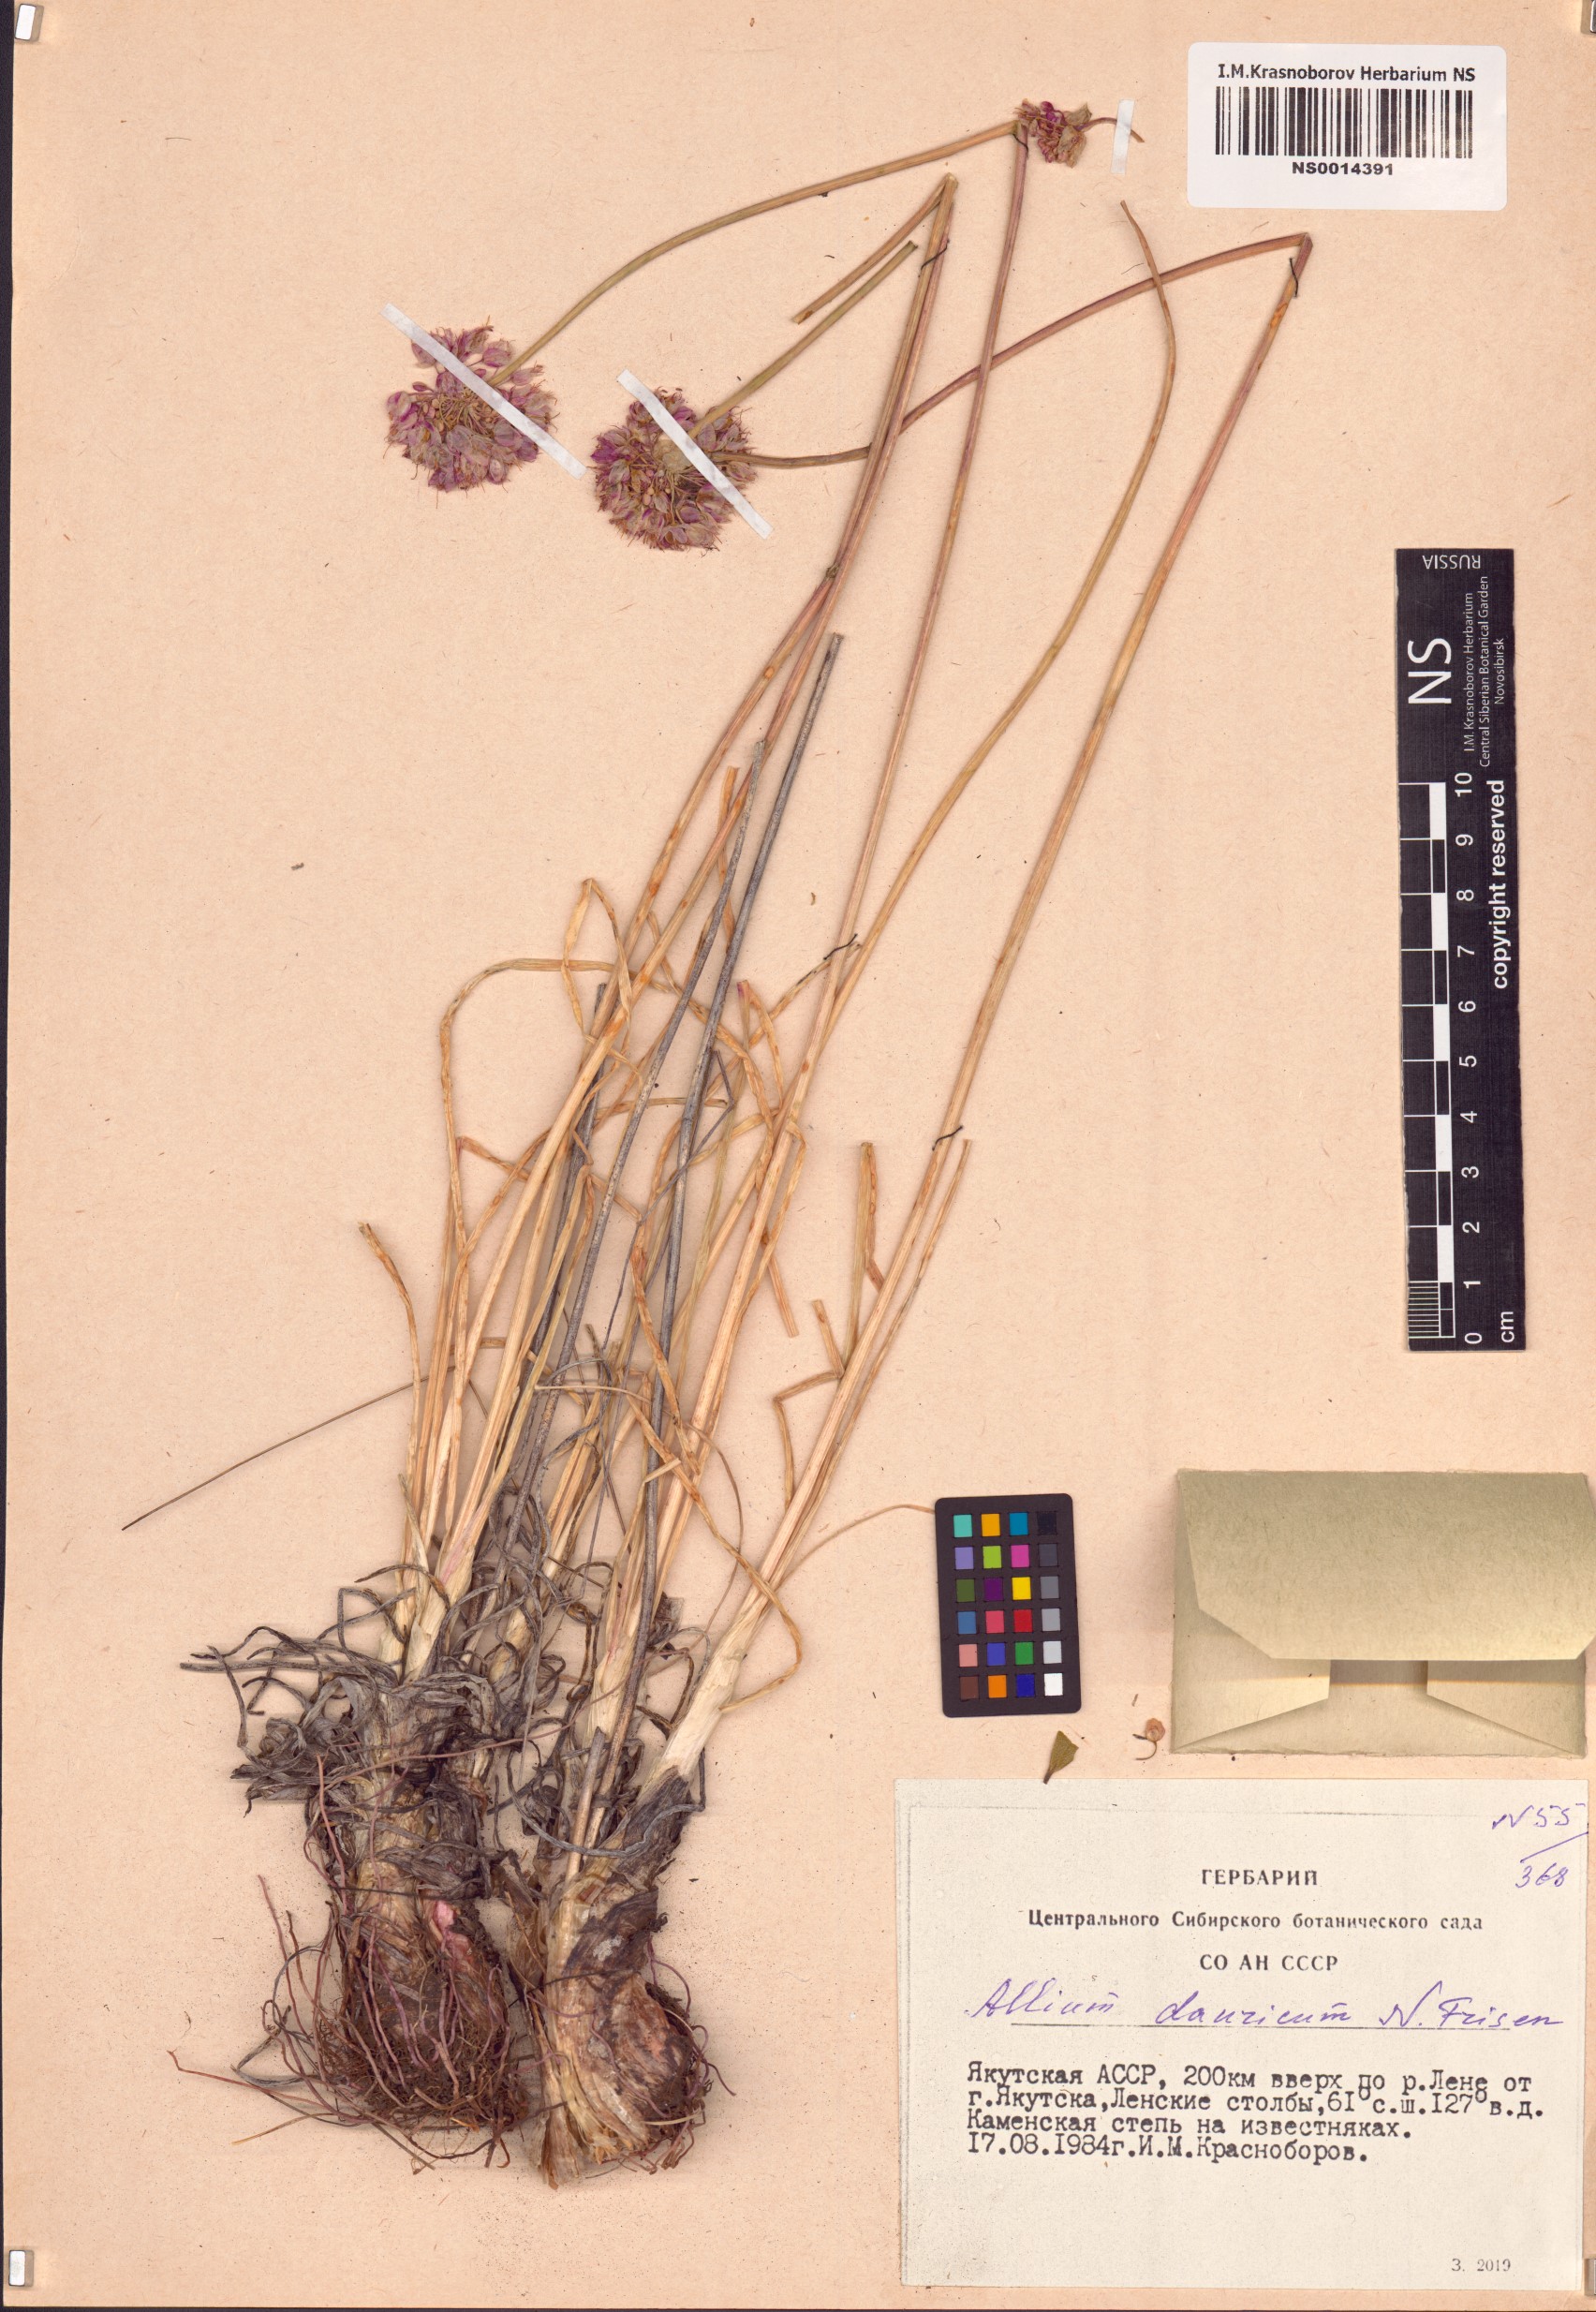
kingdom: Plantae
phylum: Tracheophyta
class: Liliopsida
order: Asparagales
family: Amaryllidaceae
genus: Allium
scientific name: Allium spurium
